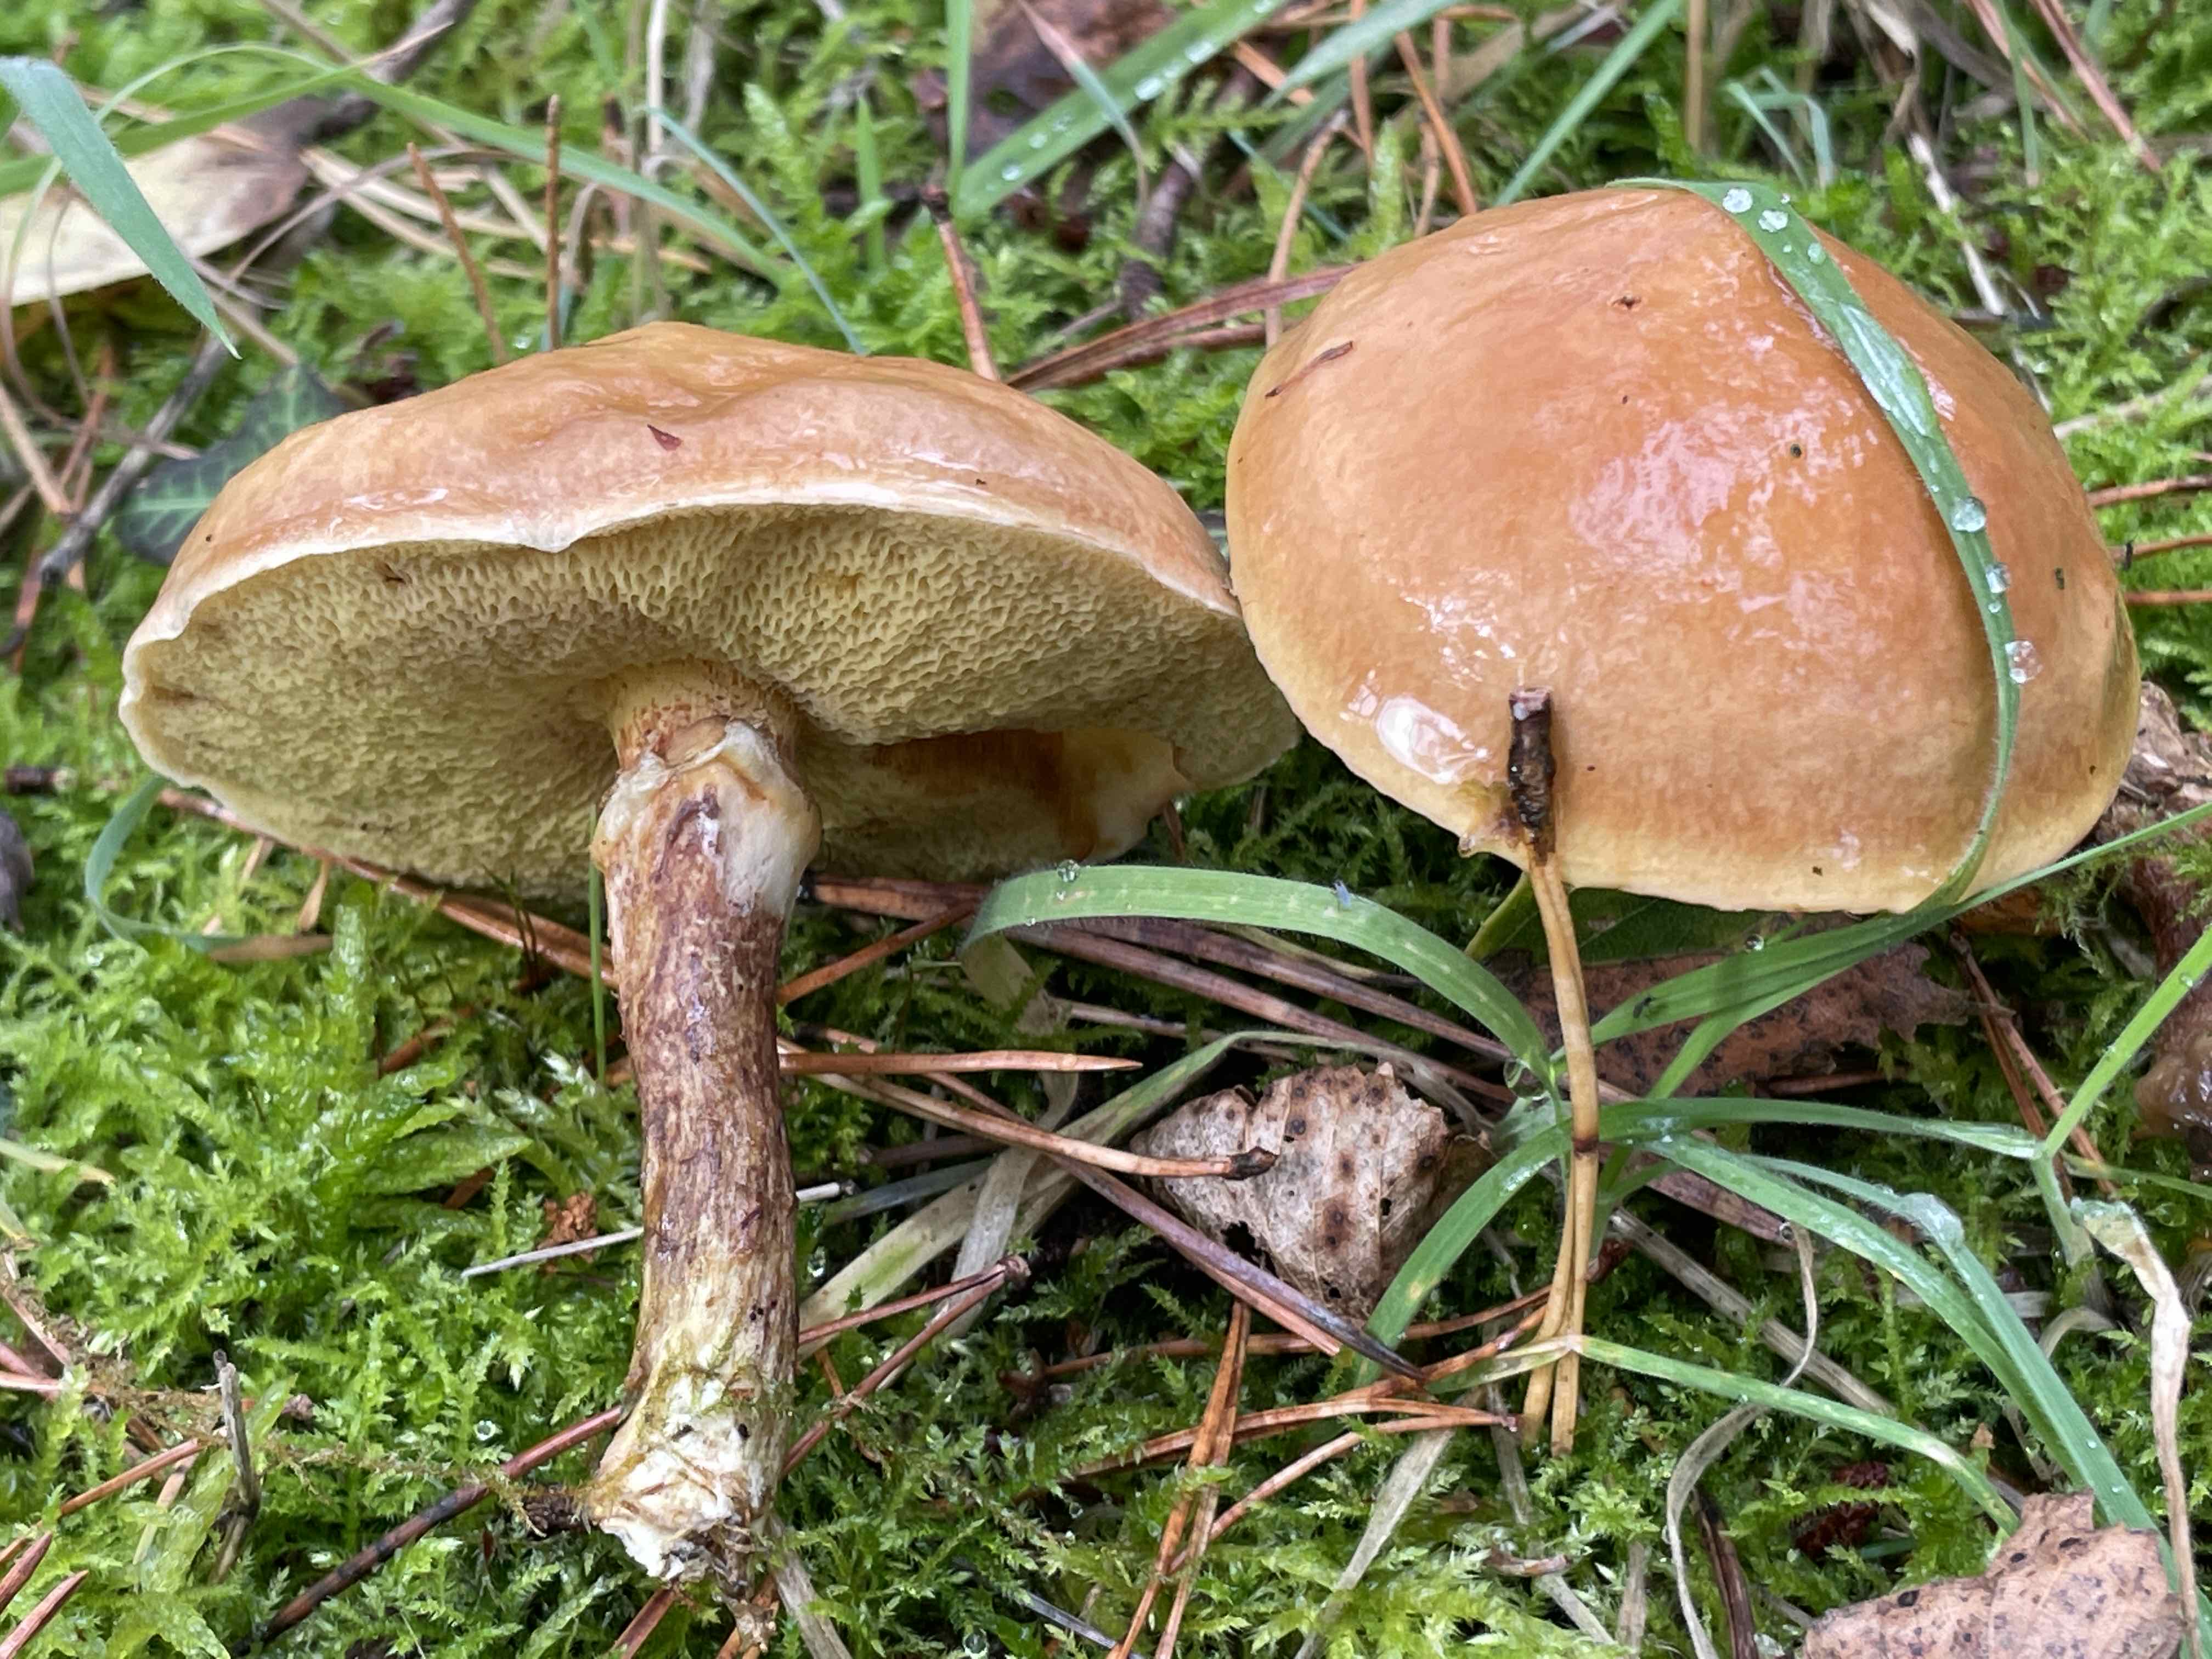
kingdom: Fungi
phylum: Basidiomycota
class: Agaricomycetes
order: Boletales
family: Suillaceae
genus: Suillus
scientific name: Suillus grevillei
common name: lærke-slimrørhat
